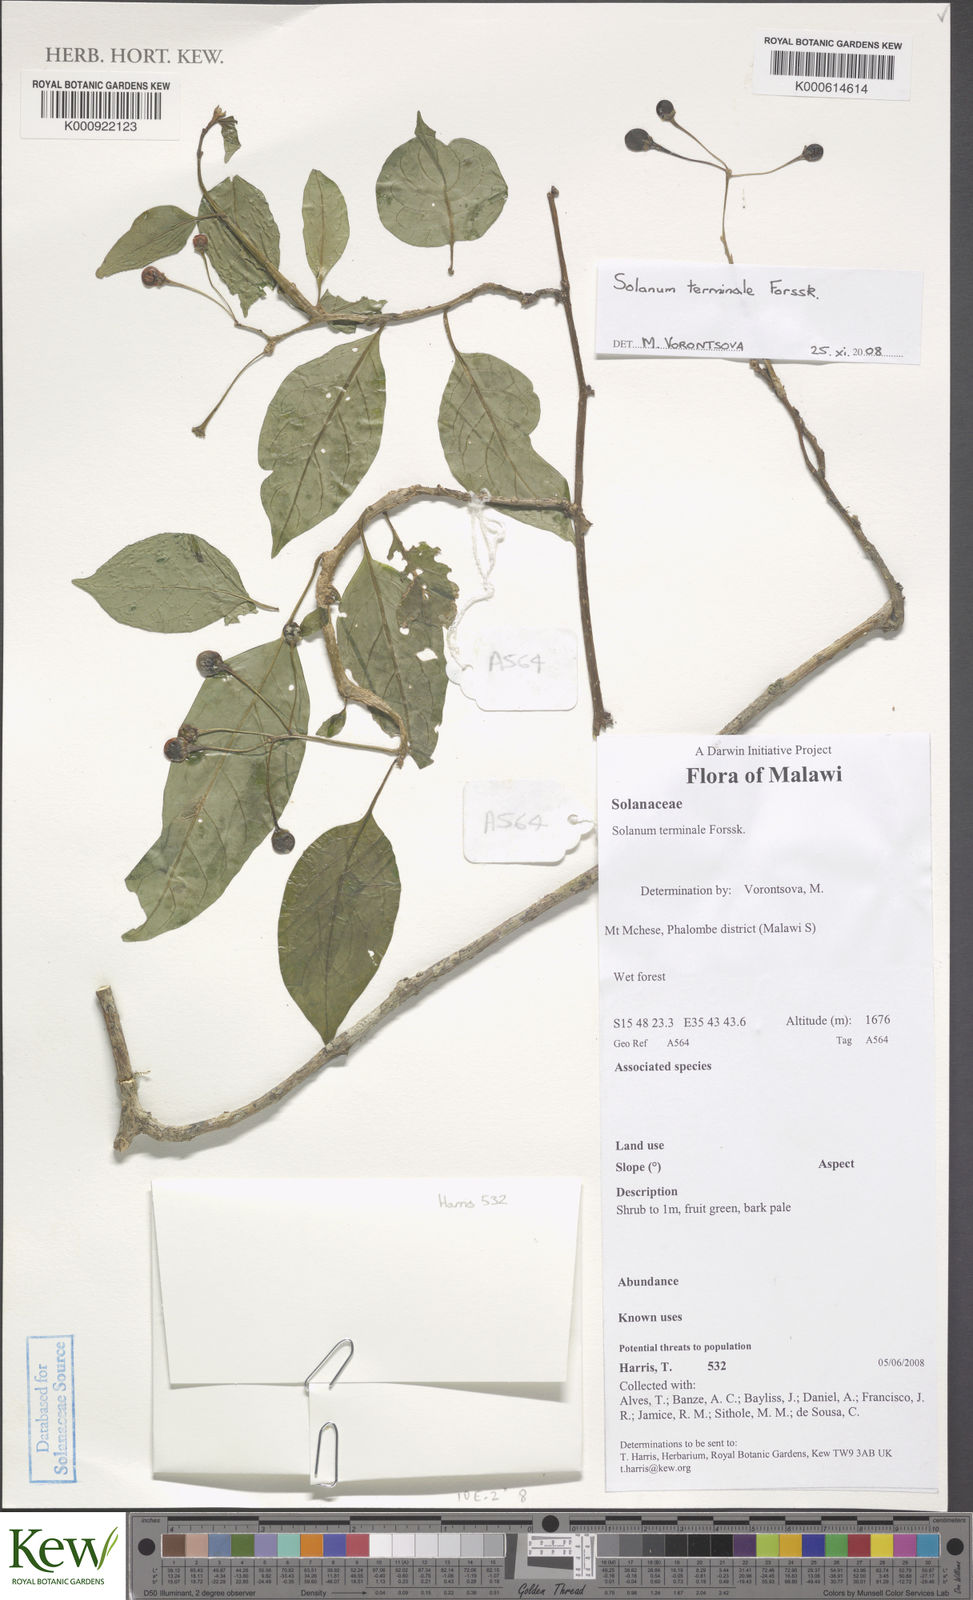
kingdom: Plantae
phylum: Tracheophyta
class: Magnoliopsida
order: Solanales
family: Solanaceae
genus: Solanum
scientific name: Solanum terminale
